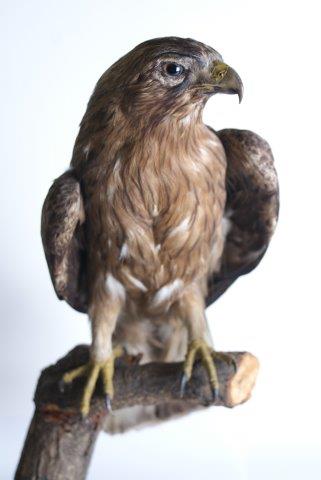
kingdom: Animalia
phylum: Chordata
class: Aves
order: Accipitriformes
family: Accipitridae
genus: Hieraaetus
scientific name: Hieraaetus pennatus
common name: Dwergarend
